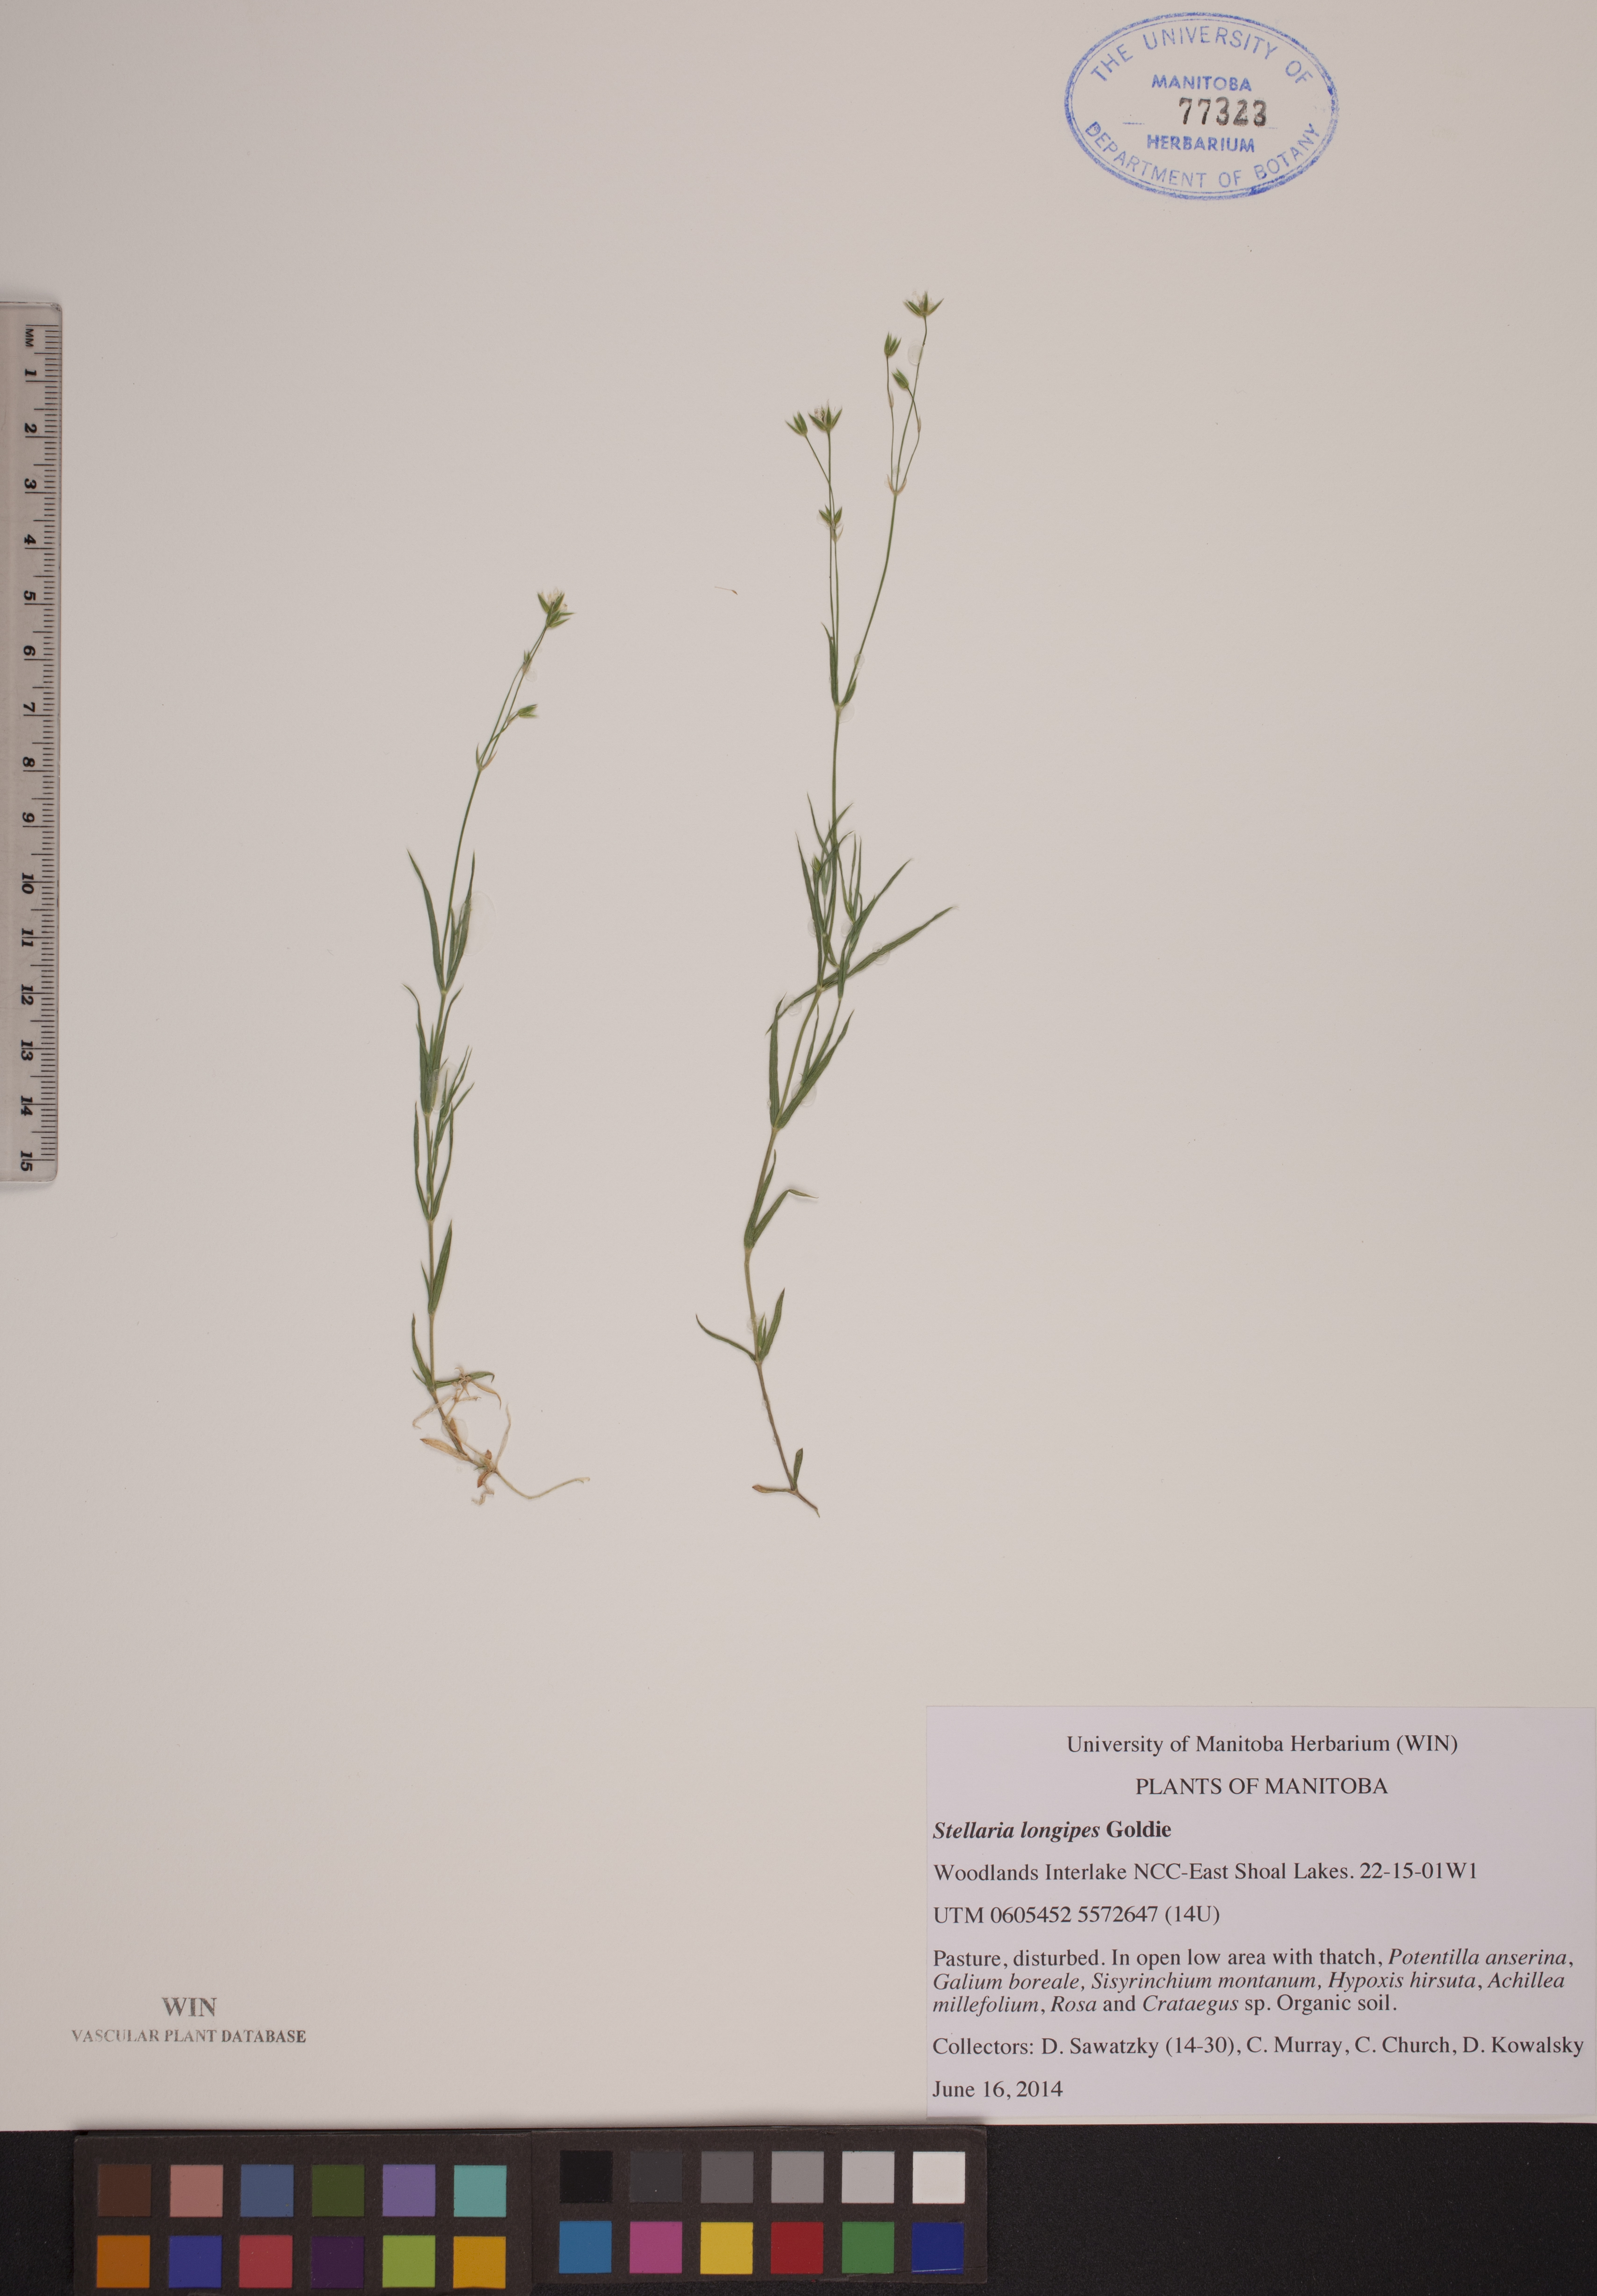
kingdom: Plantae
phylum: Tracheophyta
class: Magnoliopsida
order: Caryophyllales
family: Caryophyllaceae
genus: Stellaria
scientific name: Stellaria longipes
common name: Goldie's starwort
